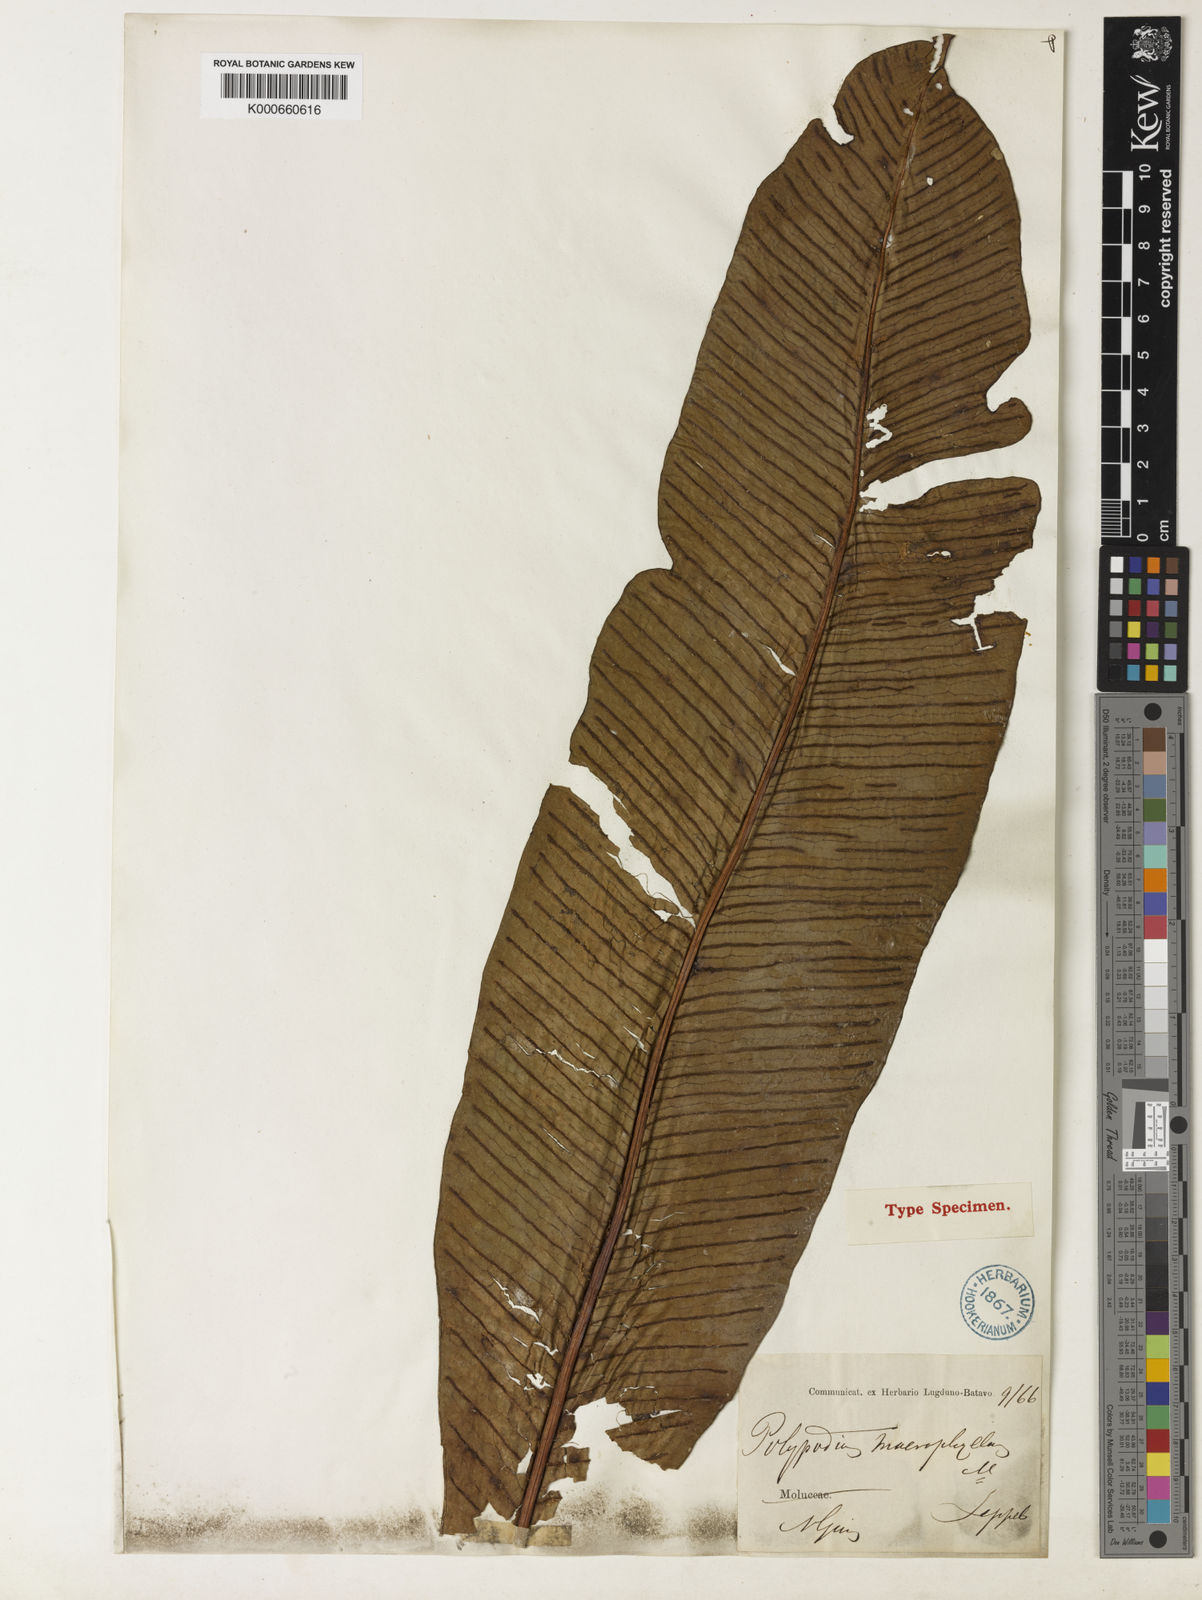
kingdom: Plantae
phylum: Tracheophyta
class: Polypodiopsida
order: Polypodiales
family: Polypodiaceae
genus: Leptochilus
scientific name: Leptochilus macrophyllus
